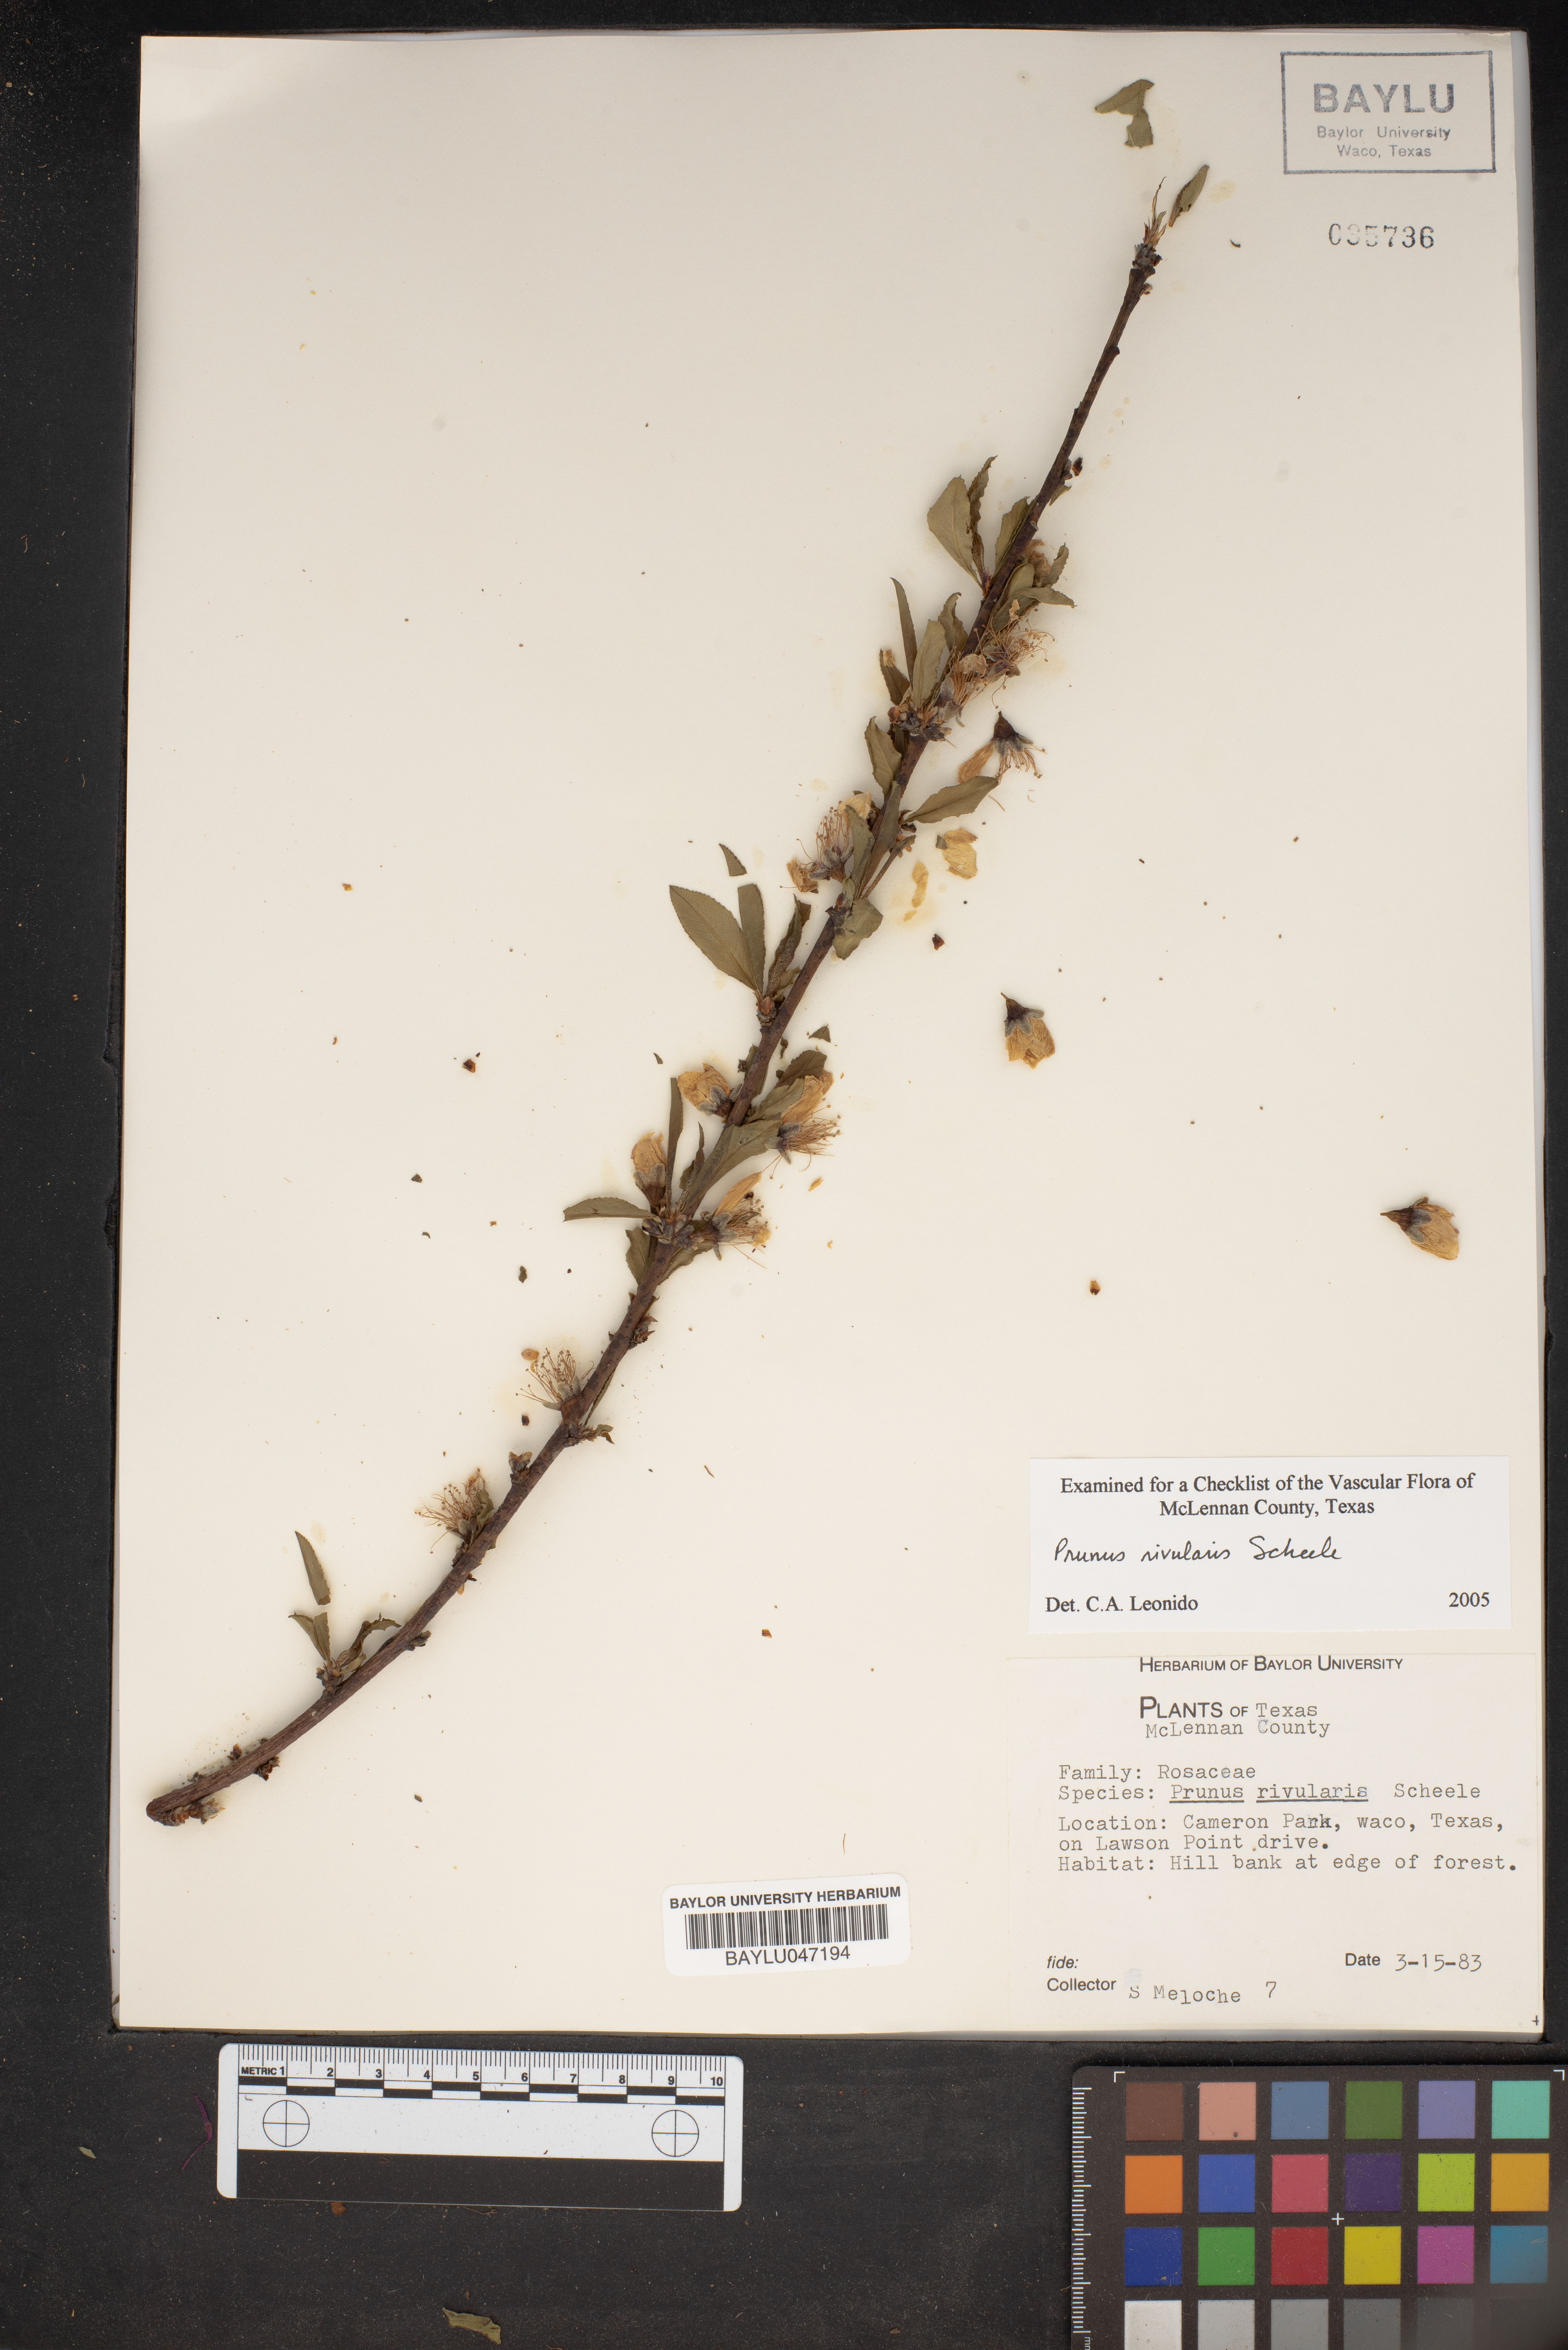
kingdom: Plantae
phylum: Tracheophyta
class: Magnoliopsida
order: Rosales
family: Rosaceae
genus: Prunus
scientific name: Prunus rivularis
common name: Creek plum
